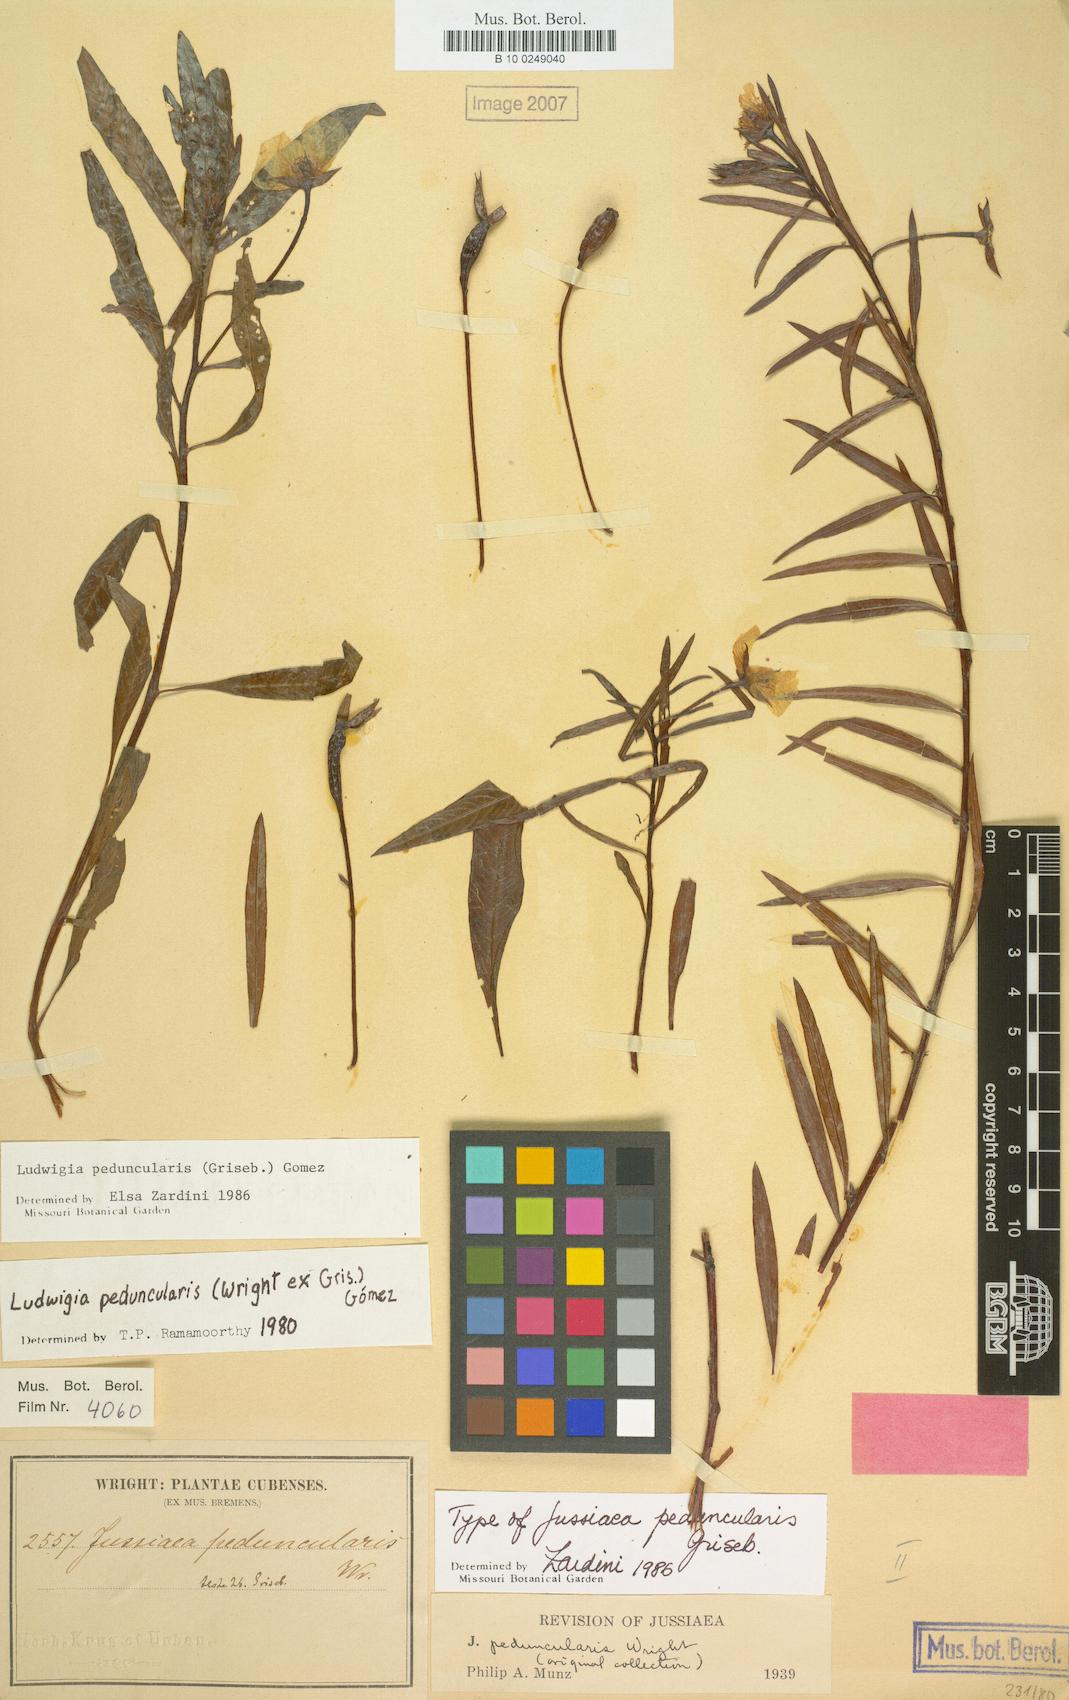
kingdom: Plantae
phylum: Tracheophyta
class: Magnoliopsida
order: Myrtales
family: Onagraceae
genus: Ludwigia
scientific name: Ludwigia peduncularis
